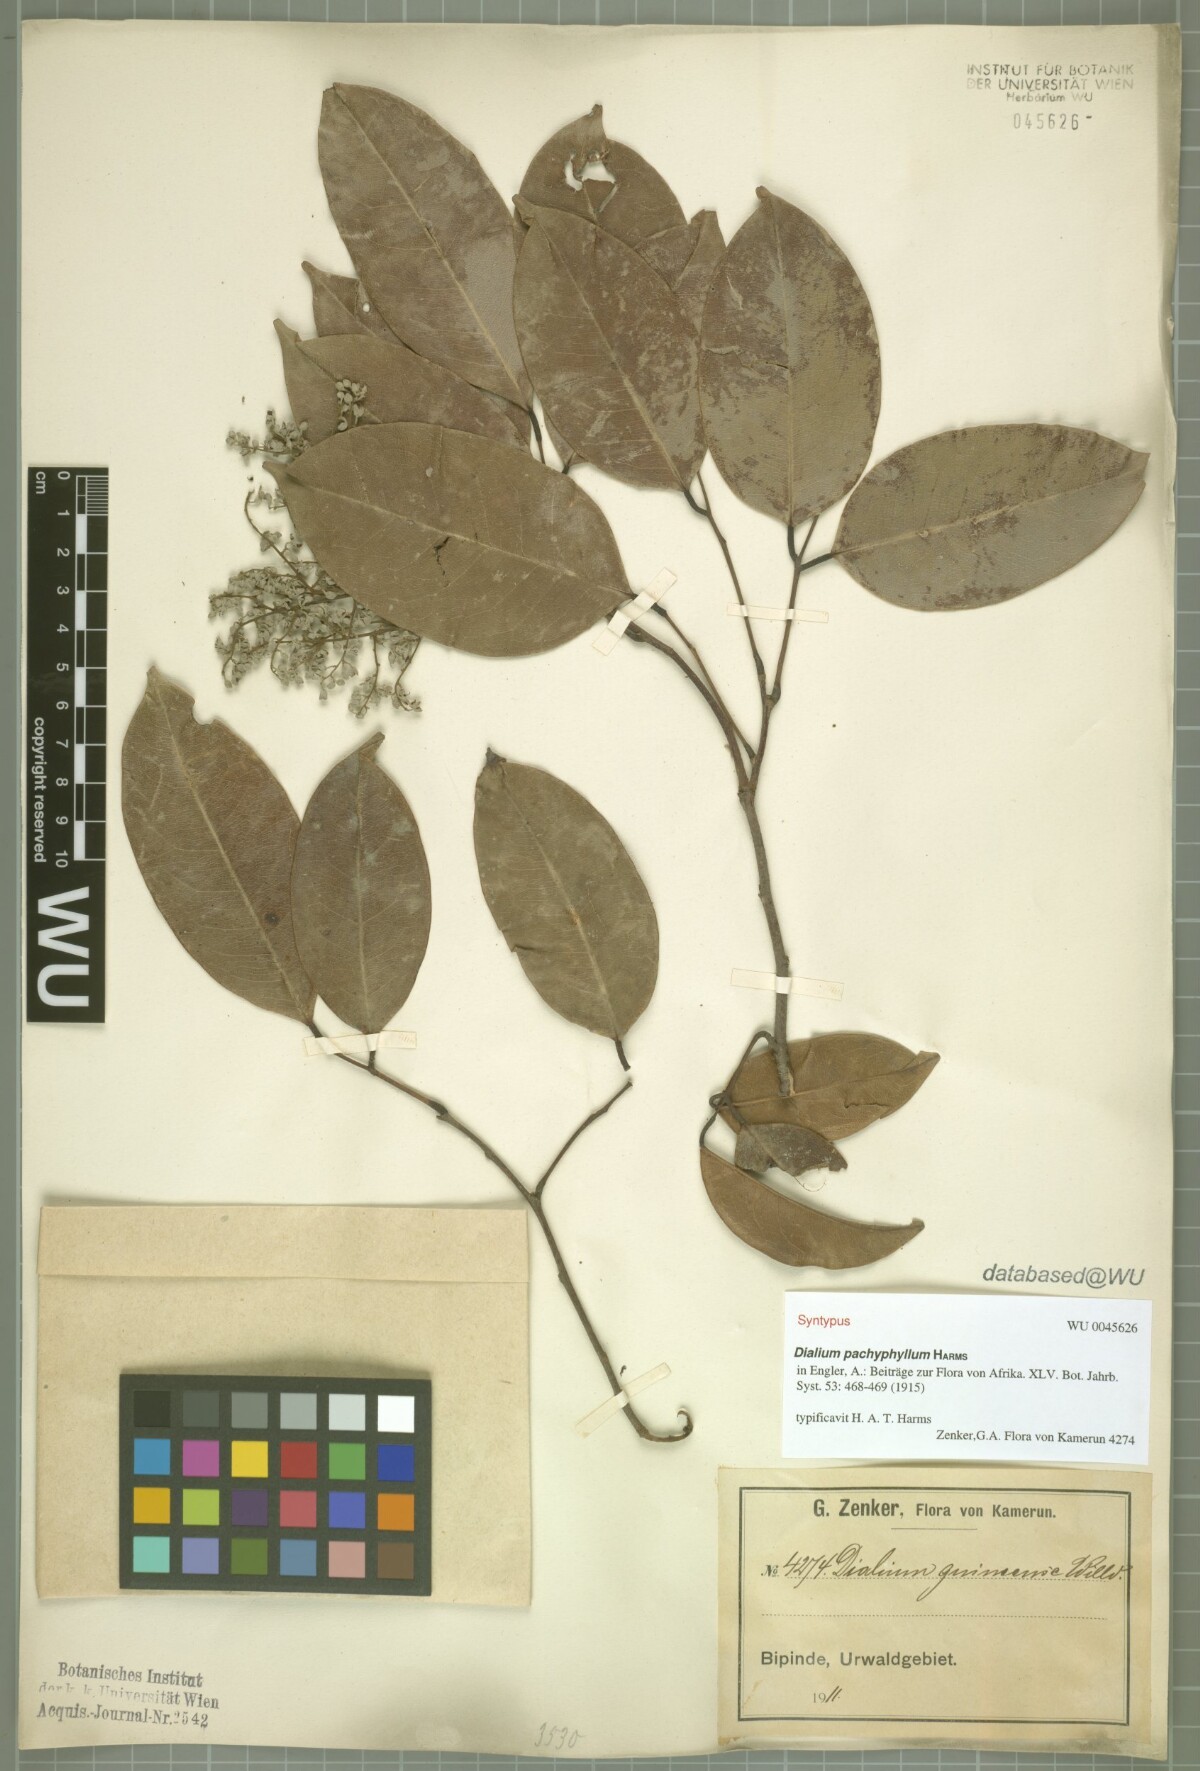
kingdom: Plantae
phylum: Tracheophyta
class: Magnoliopsida
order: Fabales
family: Fabaceae
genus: Dialium
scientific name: Dialium pachyphyllum
